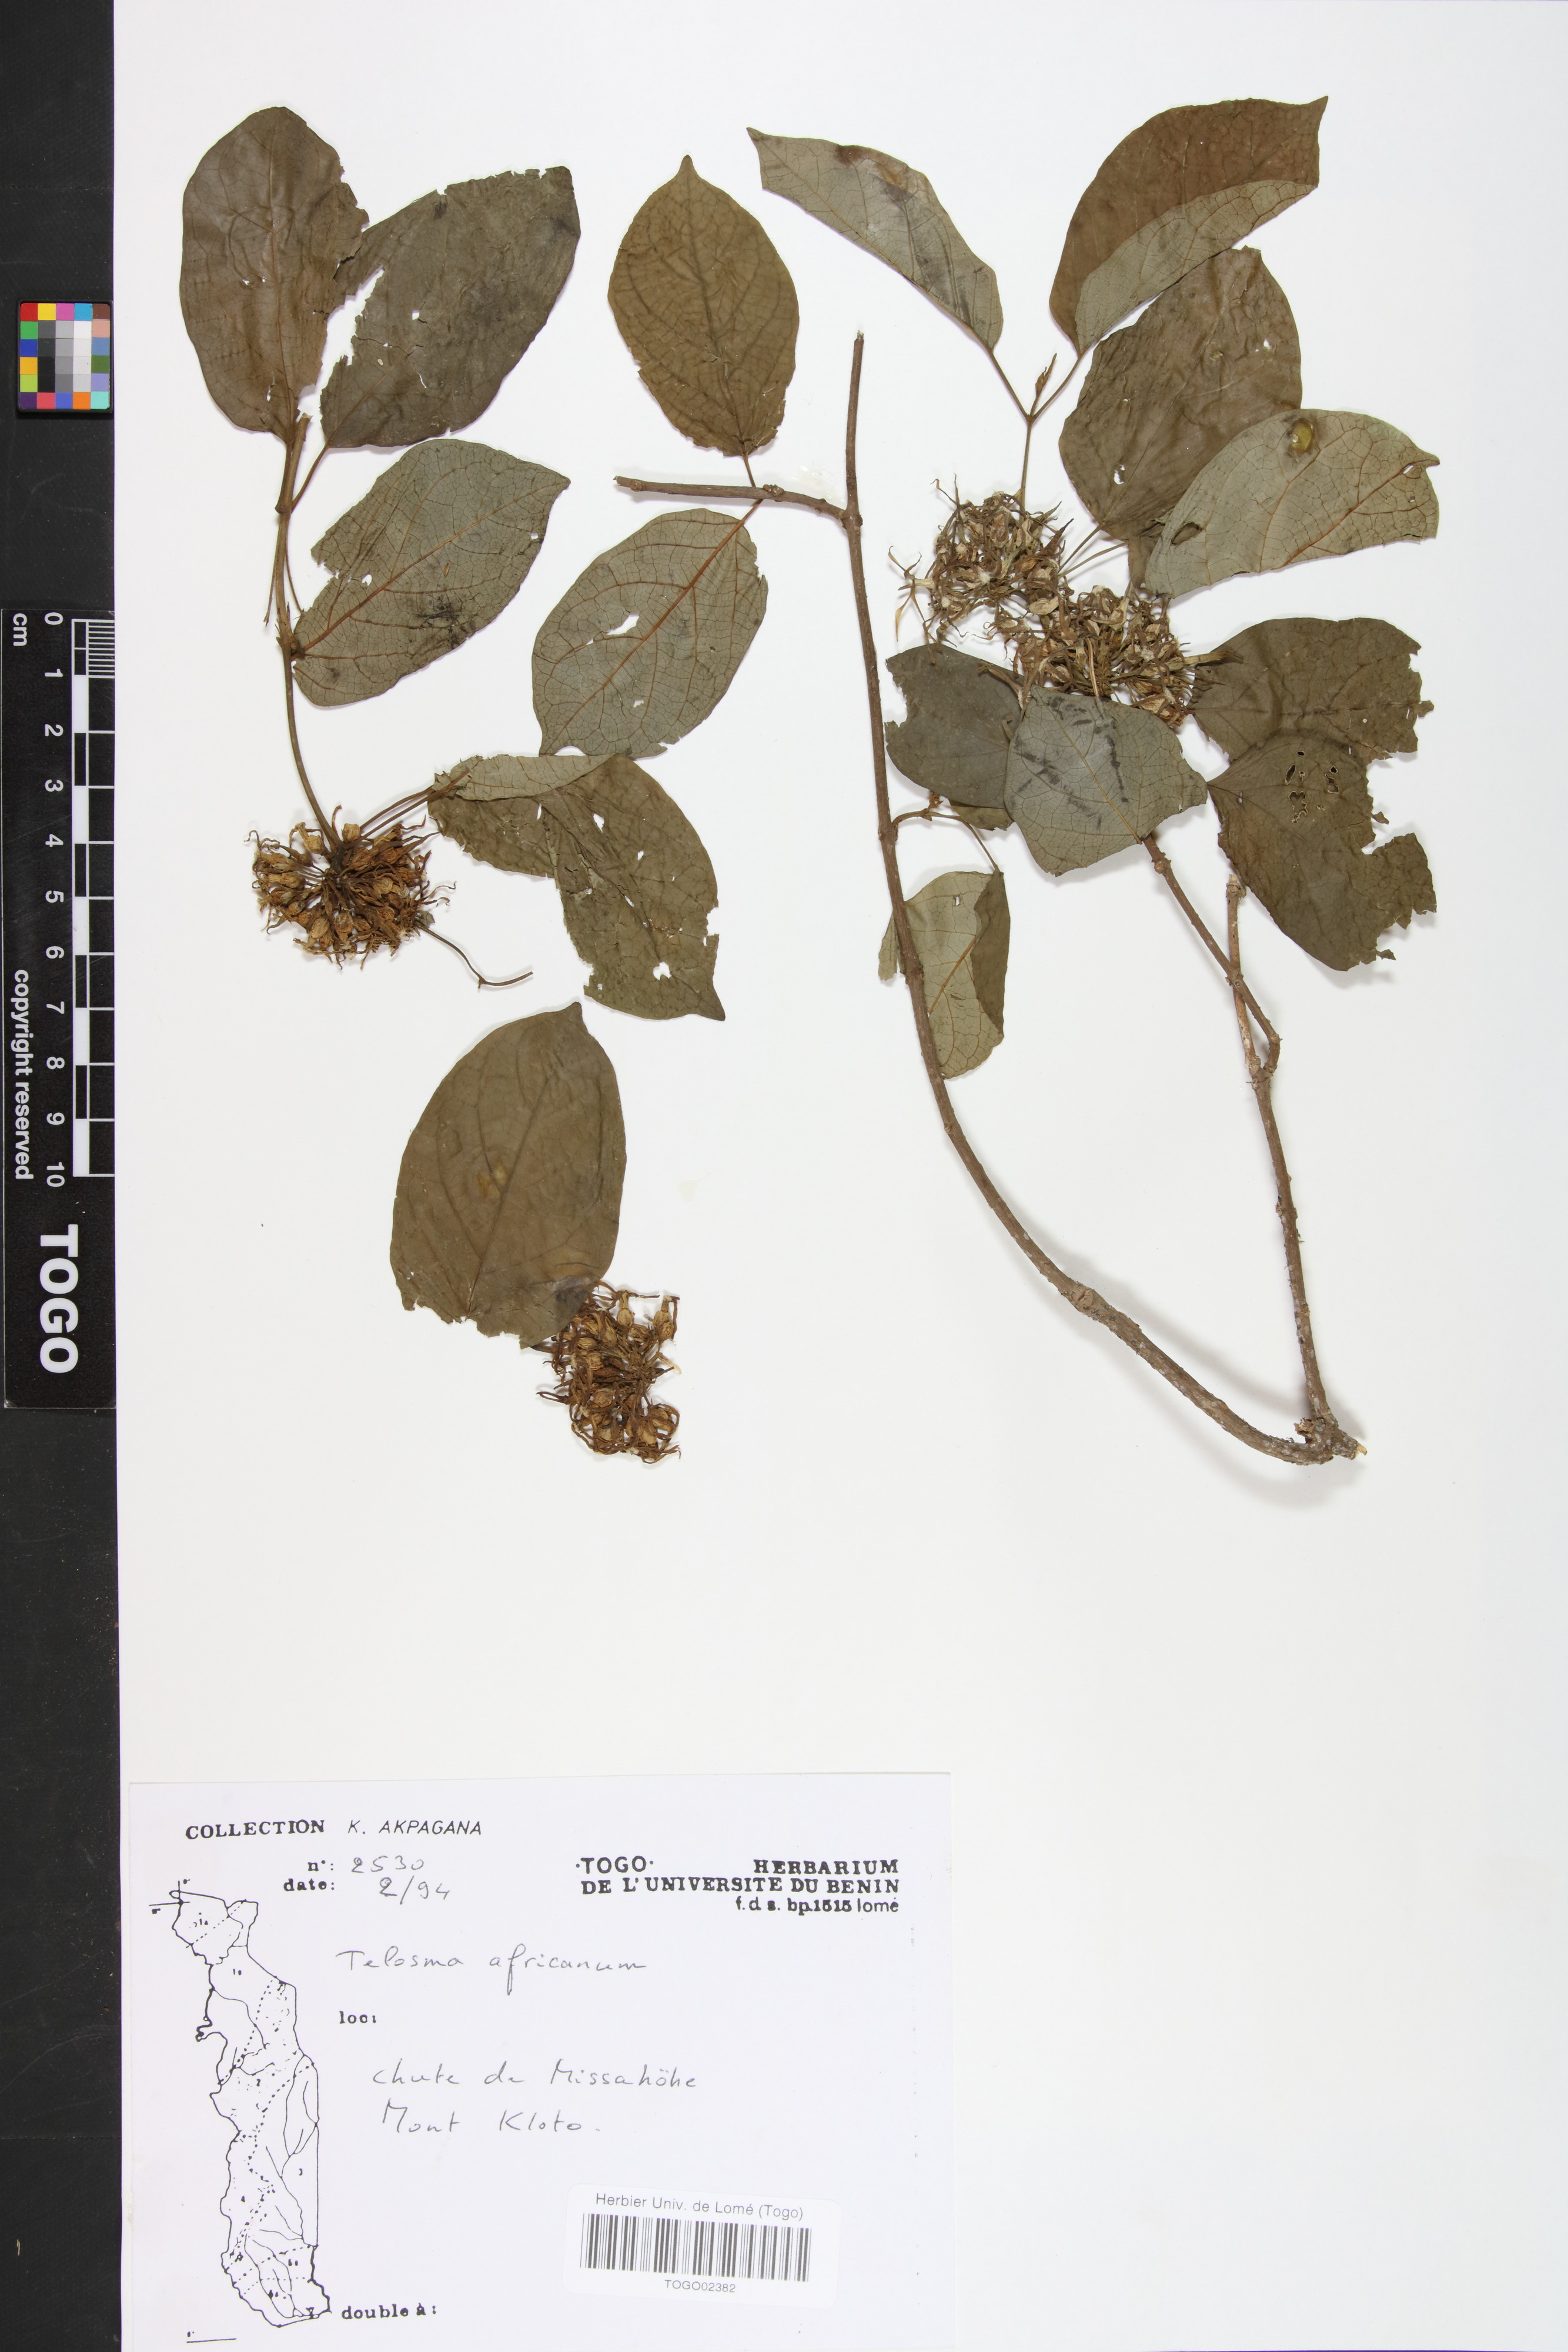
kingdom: Plantae
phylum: Tracheophyta
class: Magnoliopsida
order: Gentianales
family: Apocynaceae
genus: Telosma
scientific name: Telosma africana
